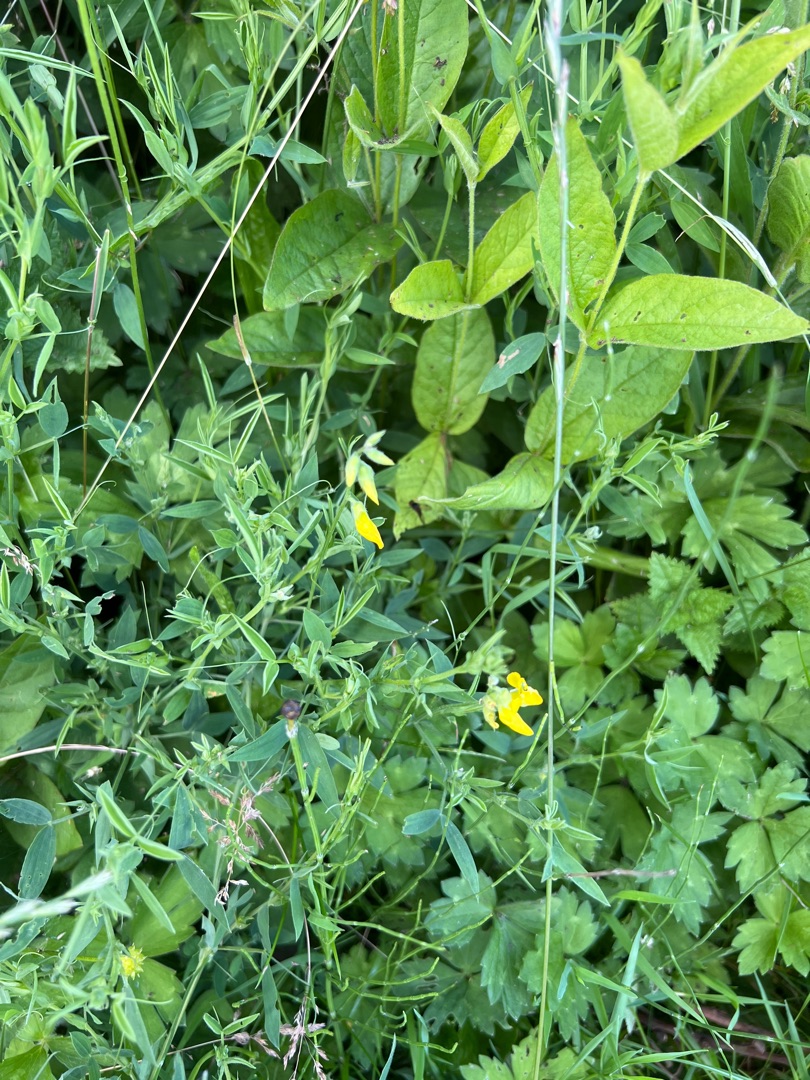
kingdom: Plantae
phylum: Tracheophyta
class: Magnoliopsida
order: Fabales
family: Fabaceae
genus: Lathyrus
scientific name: Lathyrus pratensis
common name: Gul fladbælg
